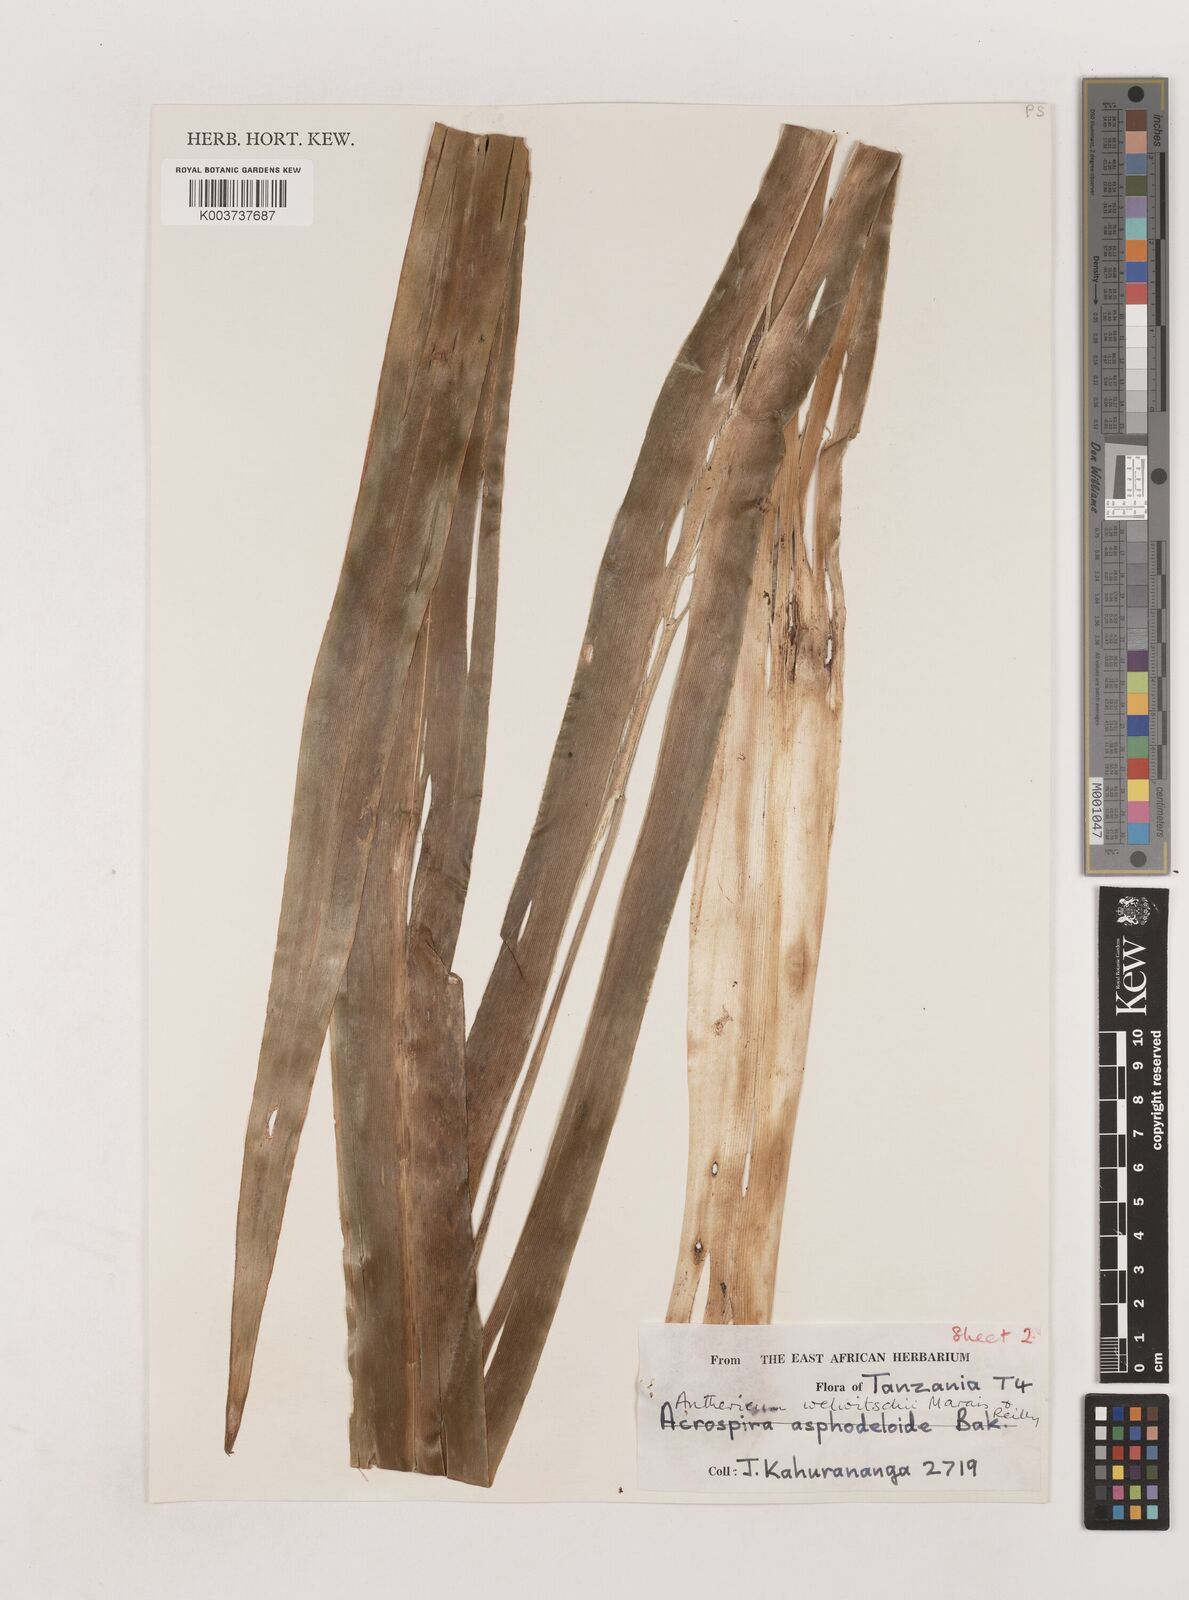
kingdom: Plantae
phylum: Tracheophyta
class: Liliopsida
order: Asparagales
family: Asparagaceae
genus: Chlorophytum
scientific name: Chlorophytum stolzii
